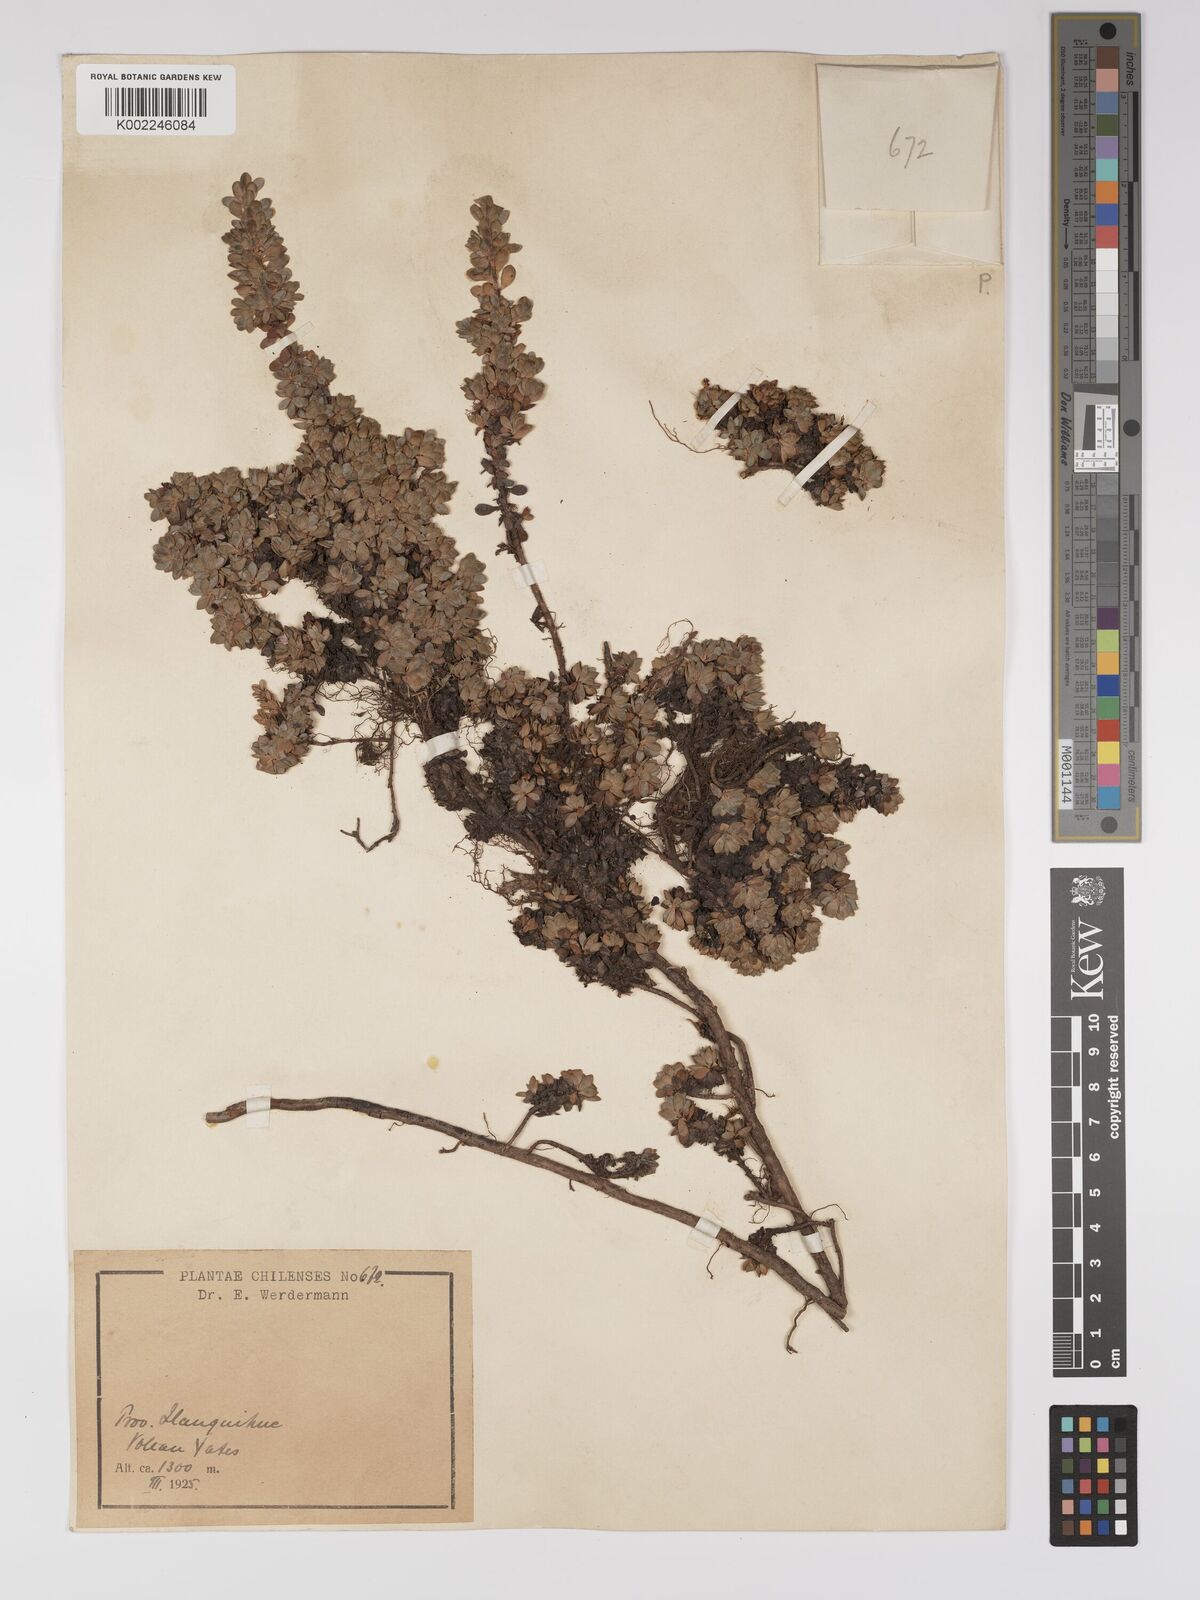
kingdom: Plantae
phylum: Tracheophyta
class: Magnoliopsida
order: Malpighiales
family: Euphorbiaceae
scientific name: Euphorbiaceae
